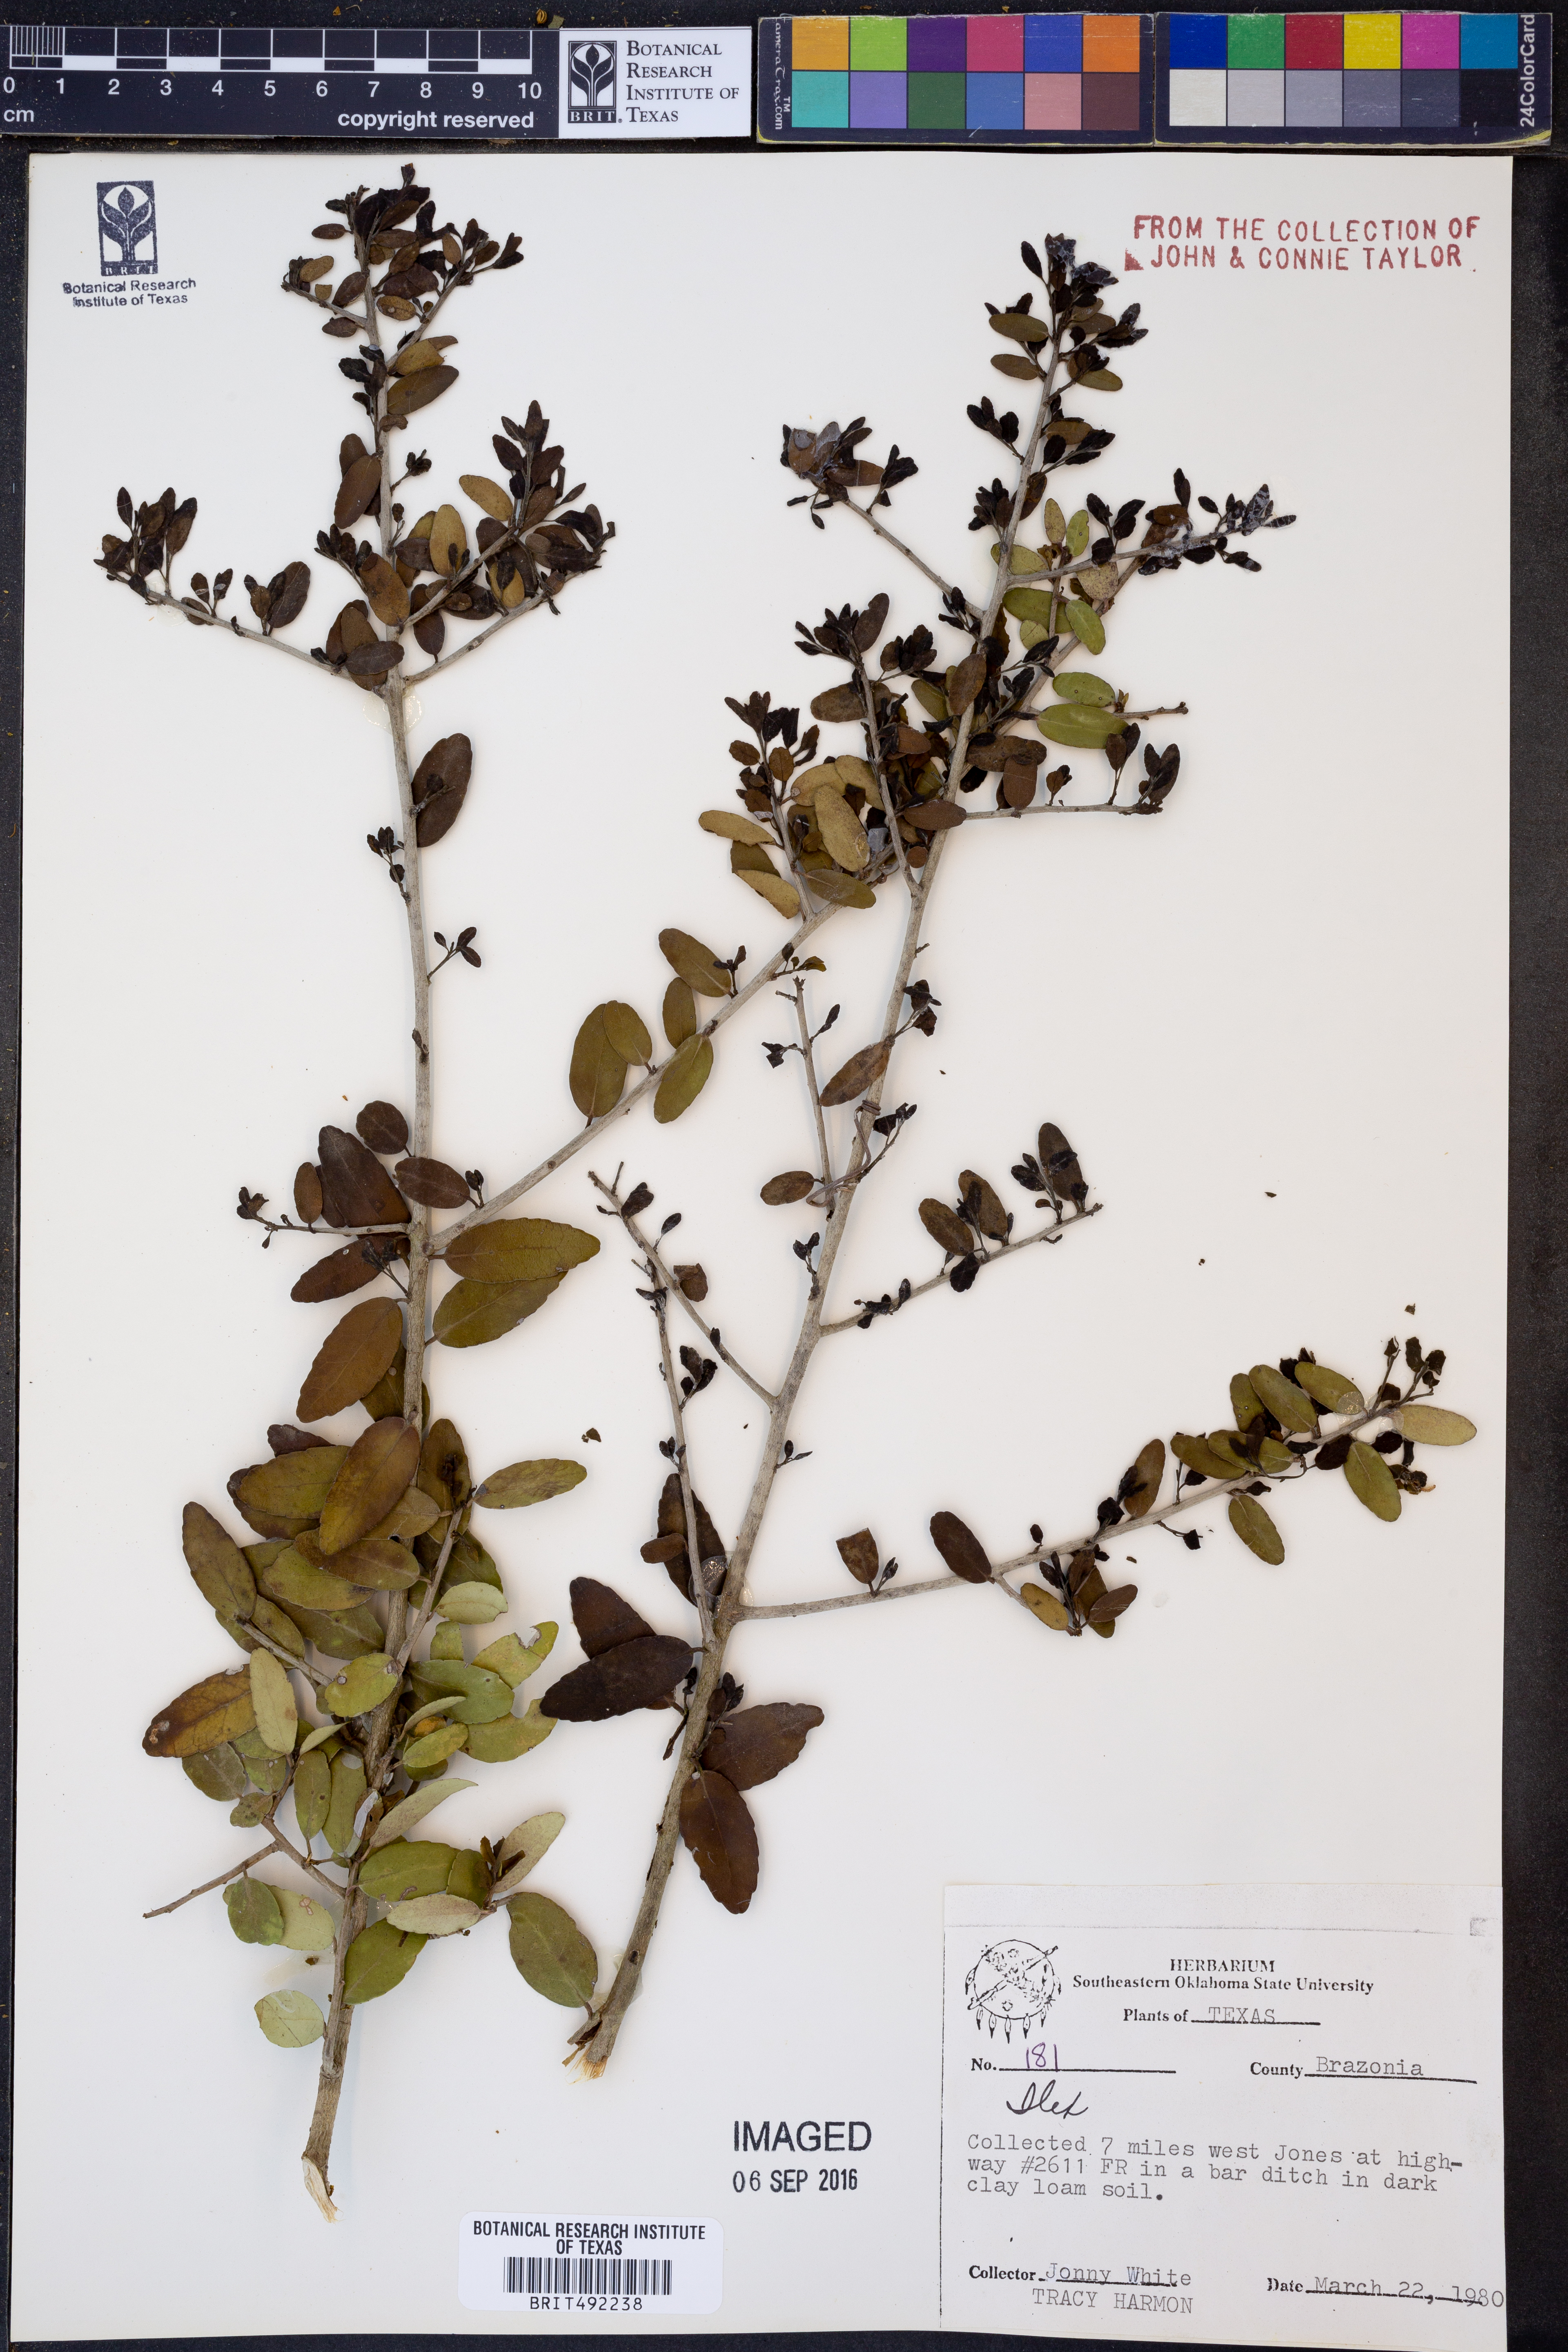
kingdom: Plantae
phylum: Tracheophyta
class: Magnoliopsida
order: Aquifoliales
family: Aquifoliaceae
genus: Ilex
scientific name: Ilex
